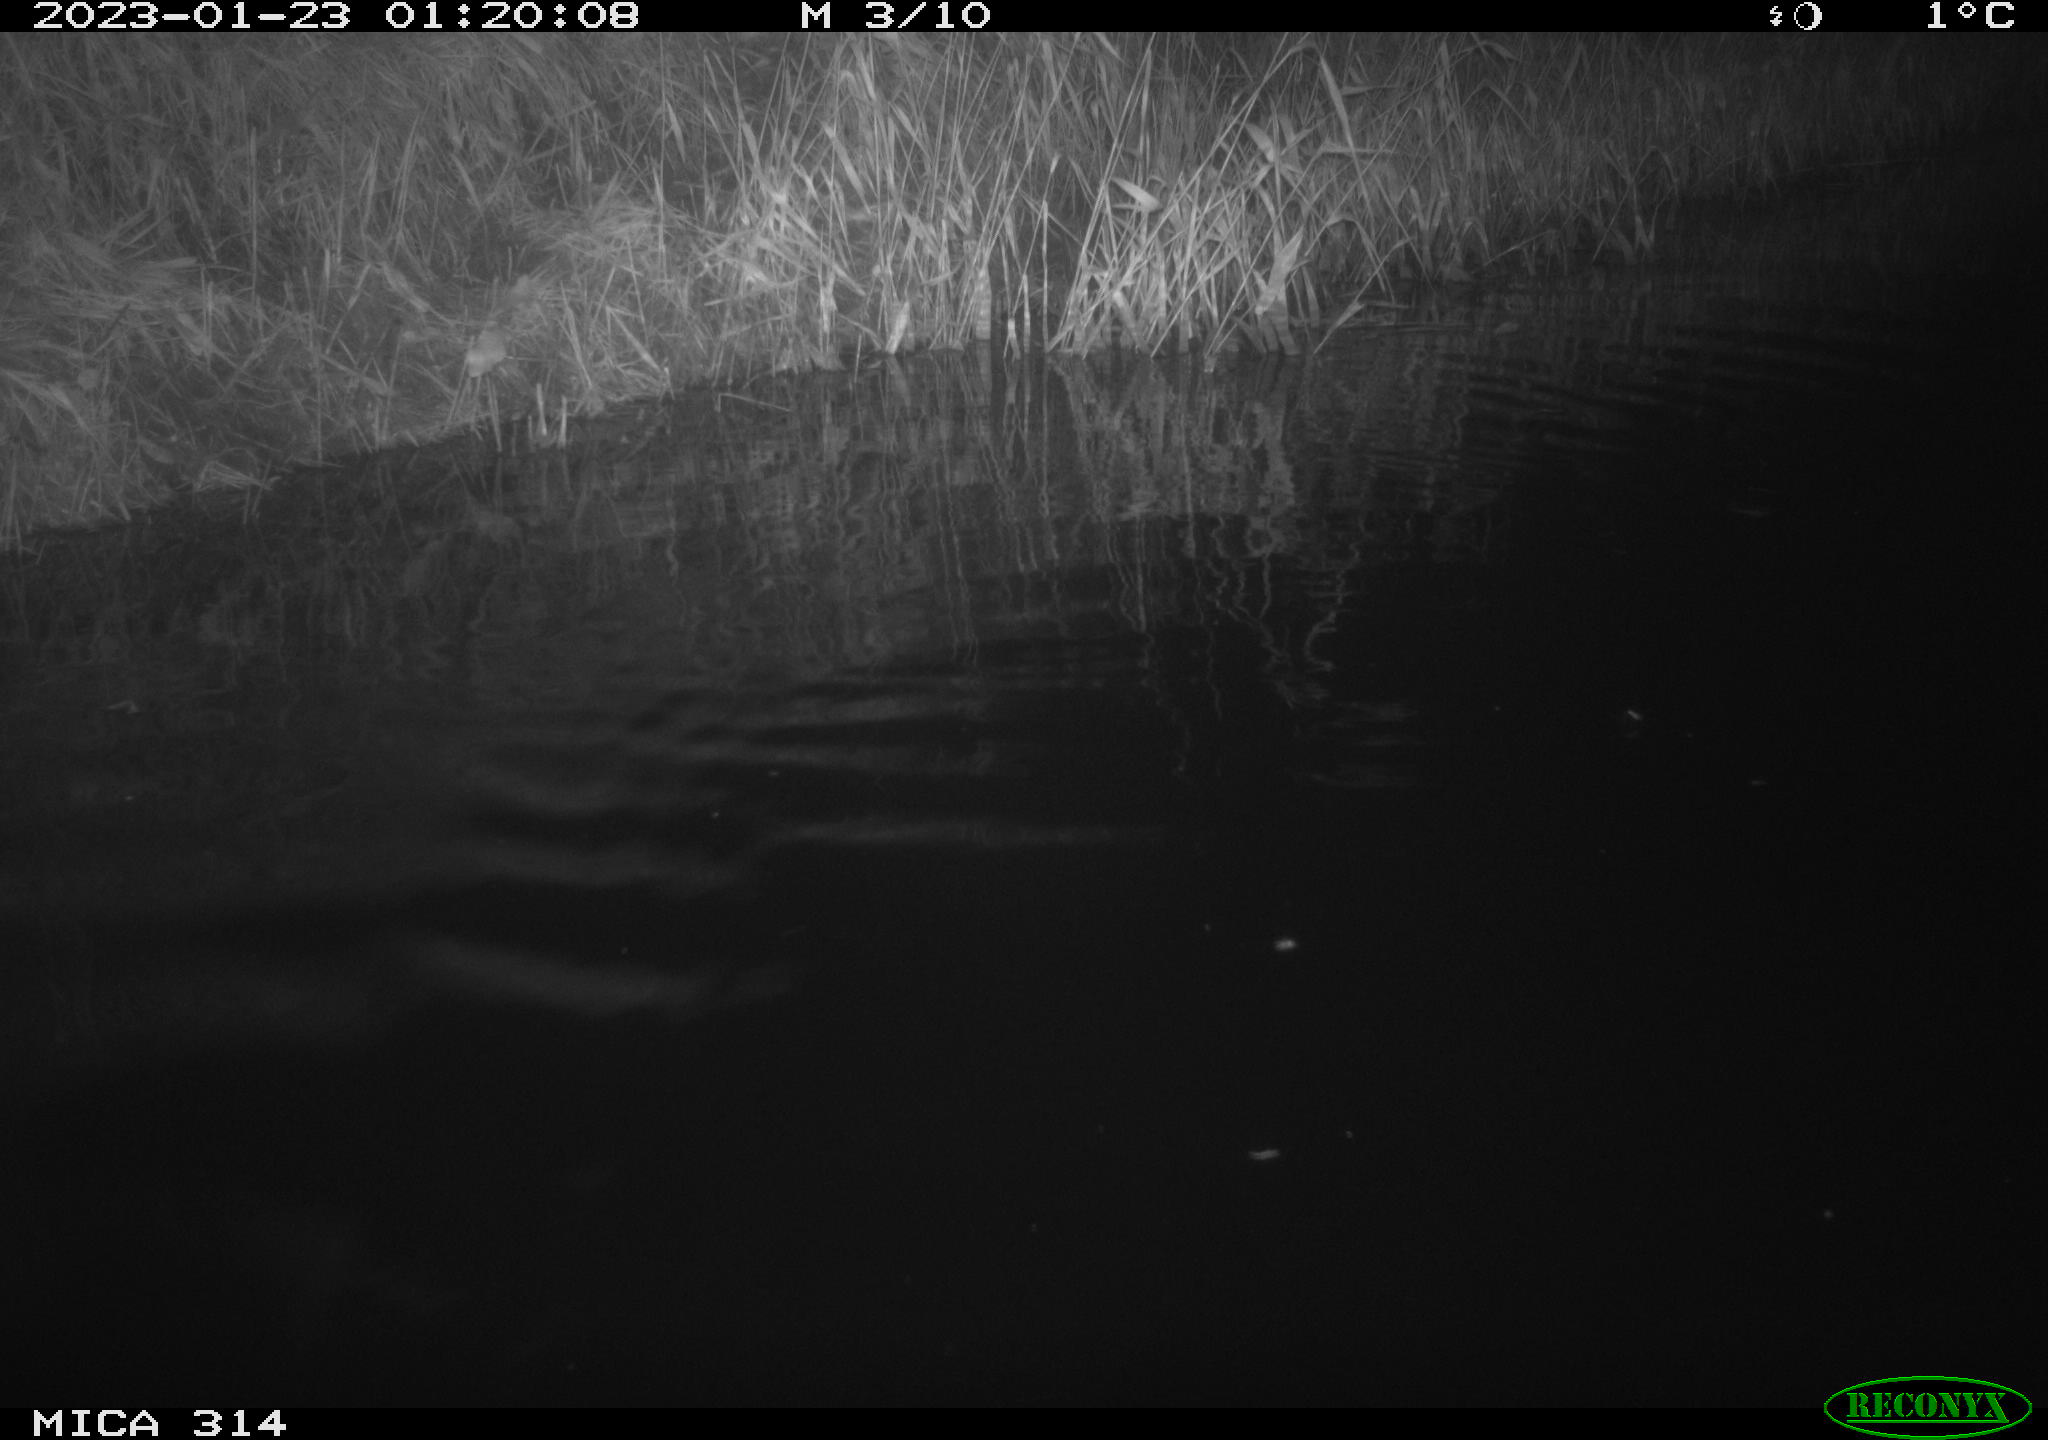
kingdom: Animalia
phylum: Chordata
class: Mammalia
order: Rodentia
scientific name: Rodentia
